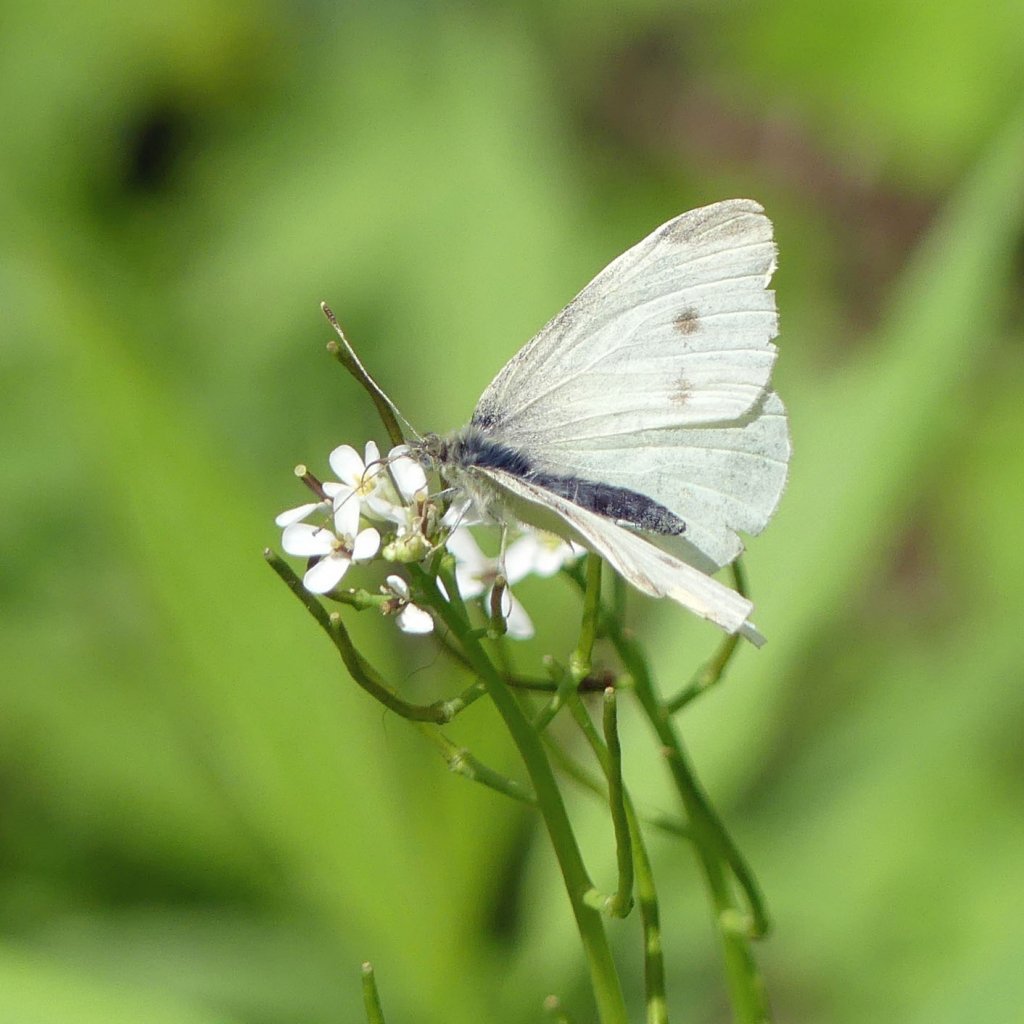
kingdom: Animalia
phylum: Arthropoda
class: Insecta
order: Lepidoptera
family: Pieridae
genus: Pieris
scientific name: Pieris rapae
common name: Cabbage White
